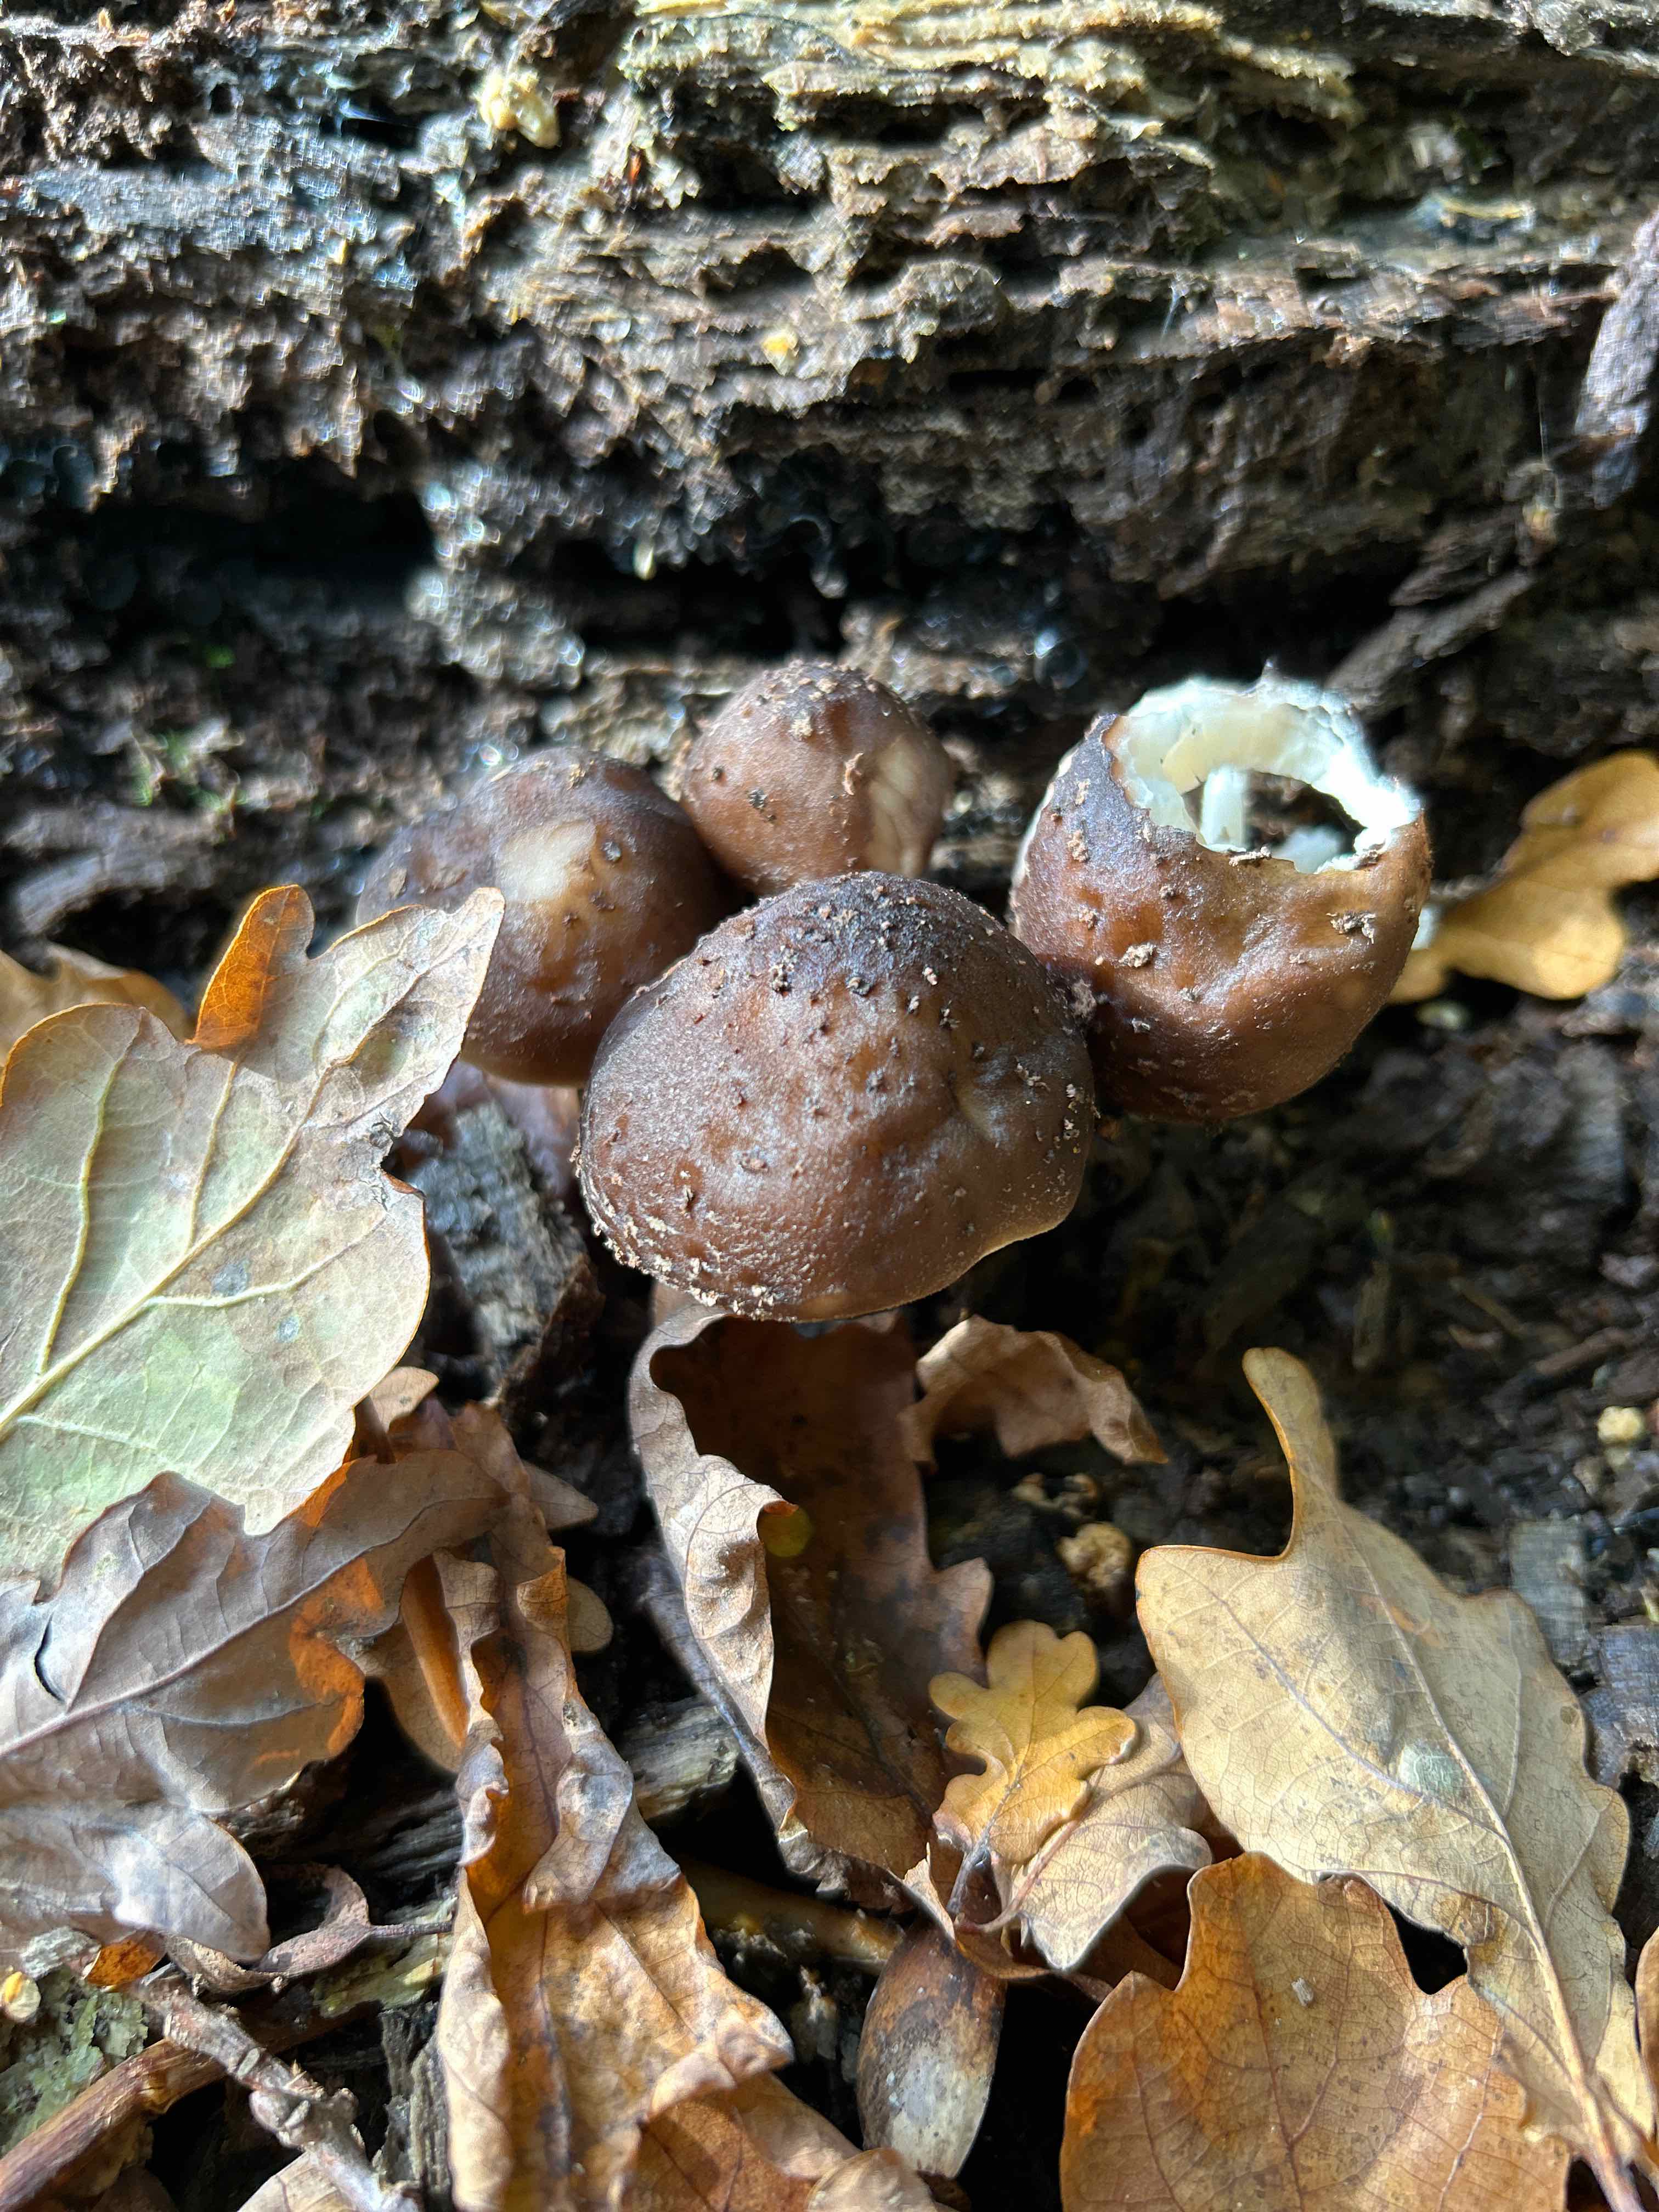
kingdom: Fungi
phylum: Basidiomycota
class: Agaricomycetes
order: Agaricales
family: Pluteaceae
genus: Pluteus
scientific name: Pluteus cervinus
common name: sodfarvet skærmhat
